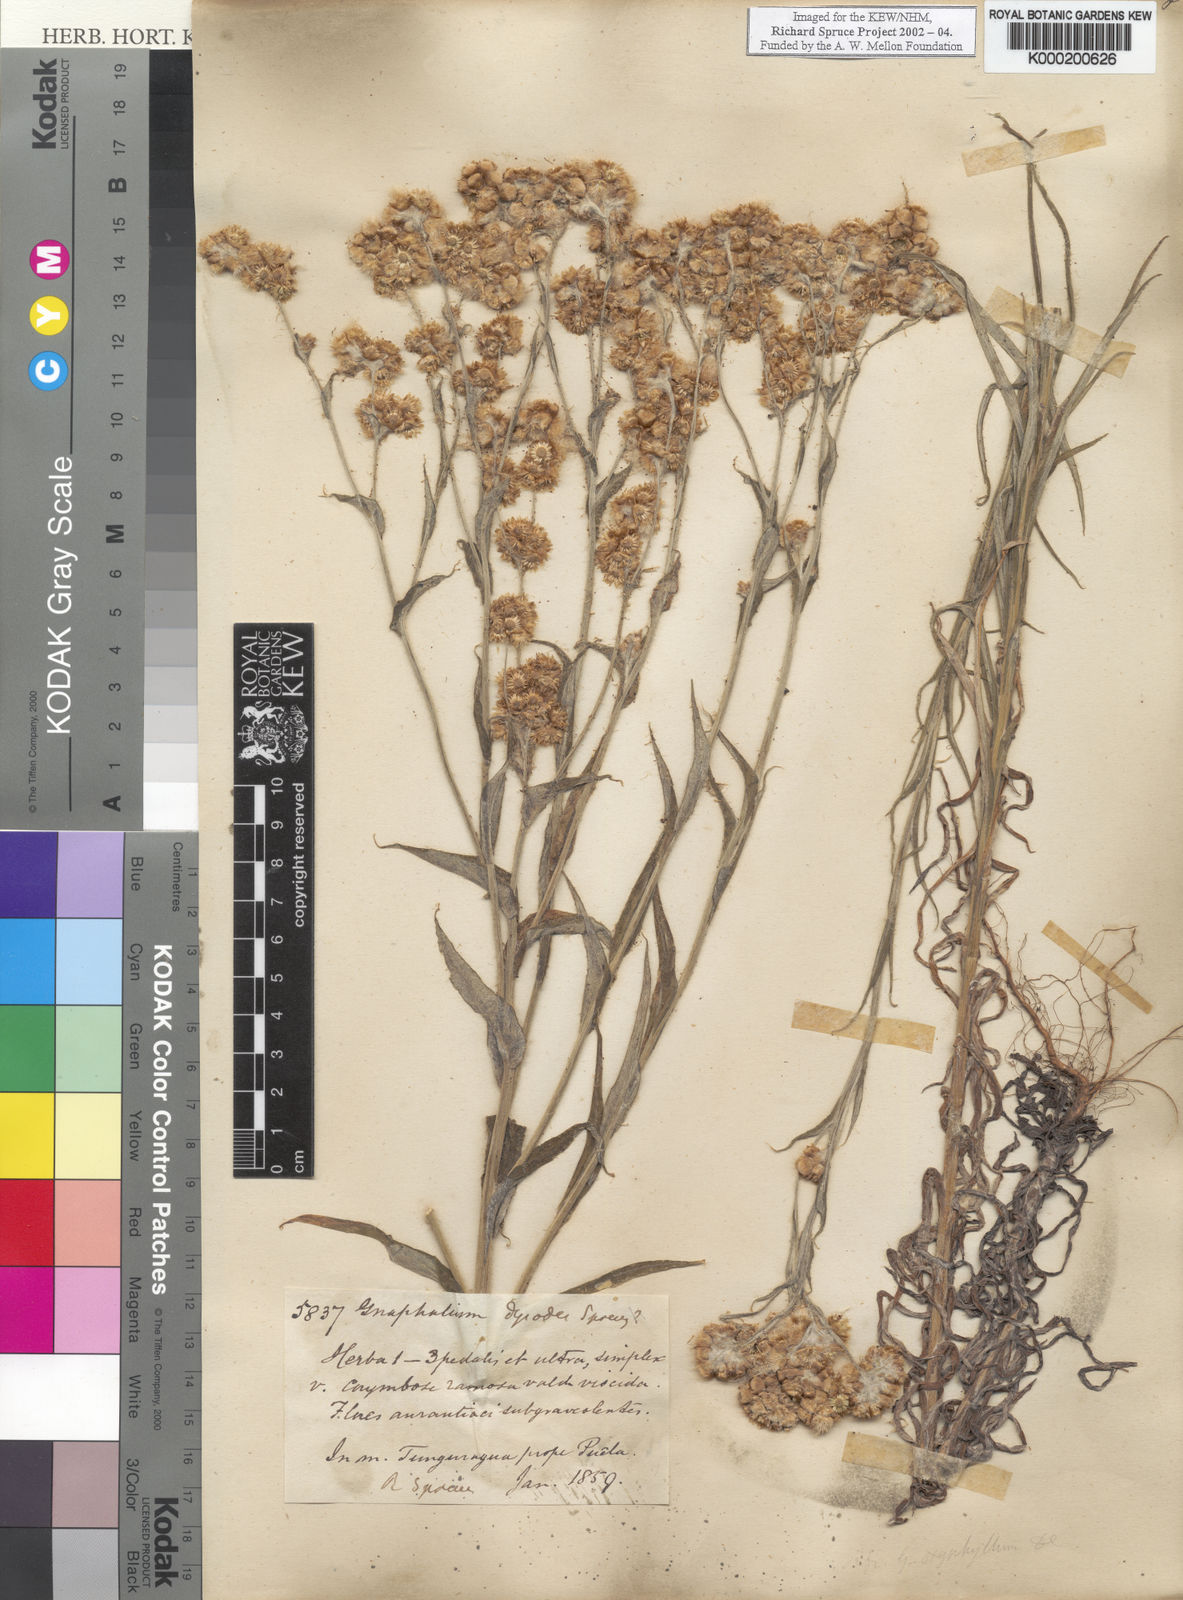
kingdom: Plantae
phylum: Tracheophyta
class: Magnoliopsida
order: Asterales
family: Asteraceae
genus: Pseudognaphalium
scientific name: Pseudognaphalium
